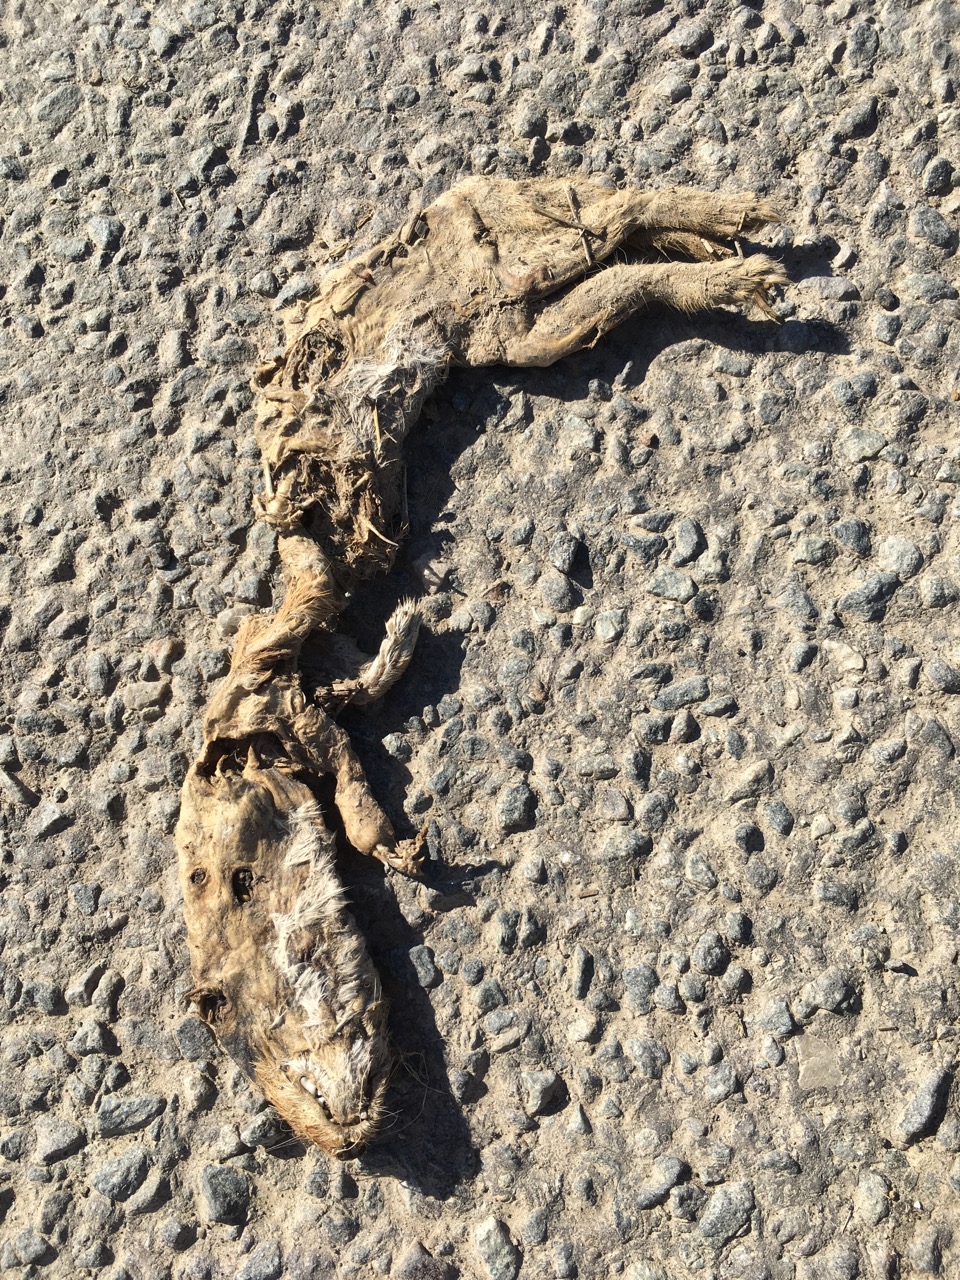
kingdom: Animalia
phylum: Chordata
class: Mammalia
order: Carnivora
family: Mustelidae
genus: Mustela
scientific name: Mustela erminea
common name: Stoat
